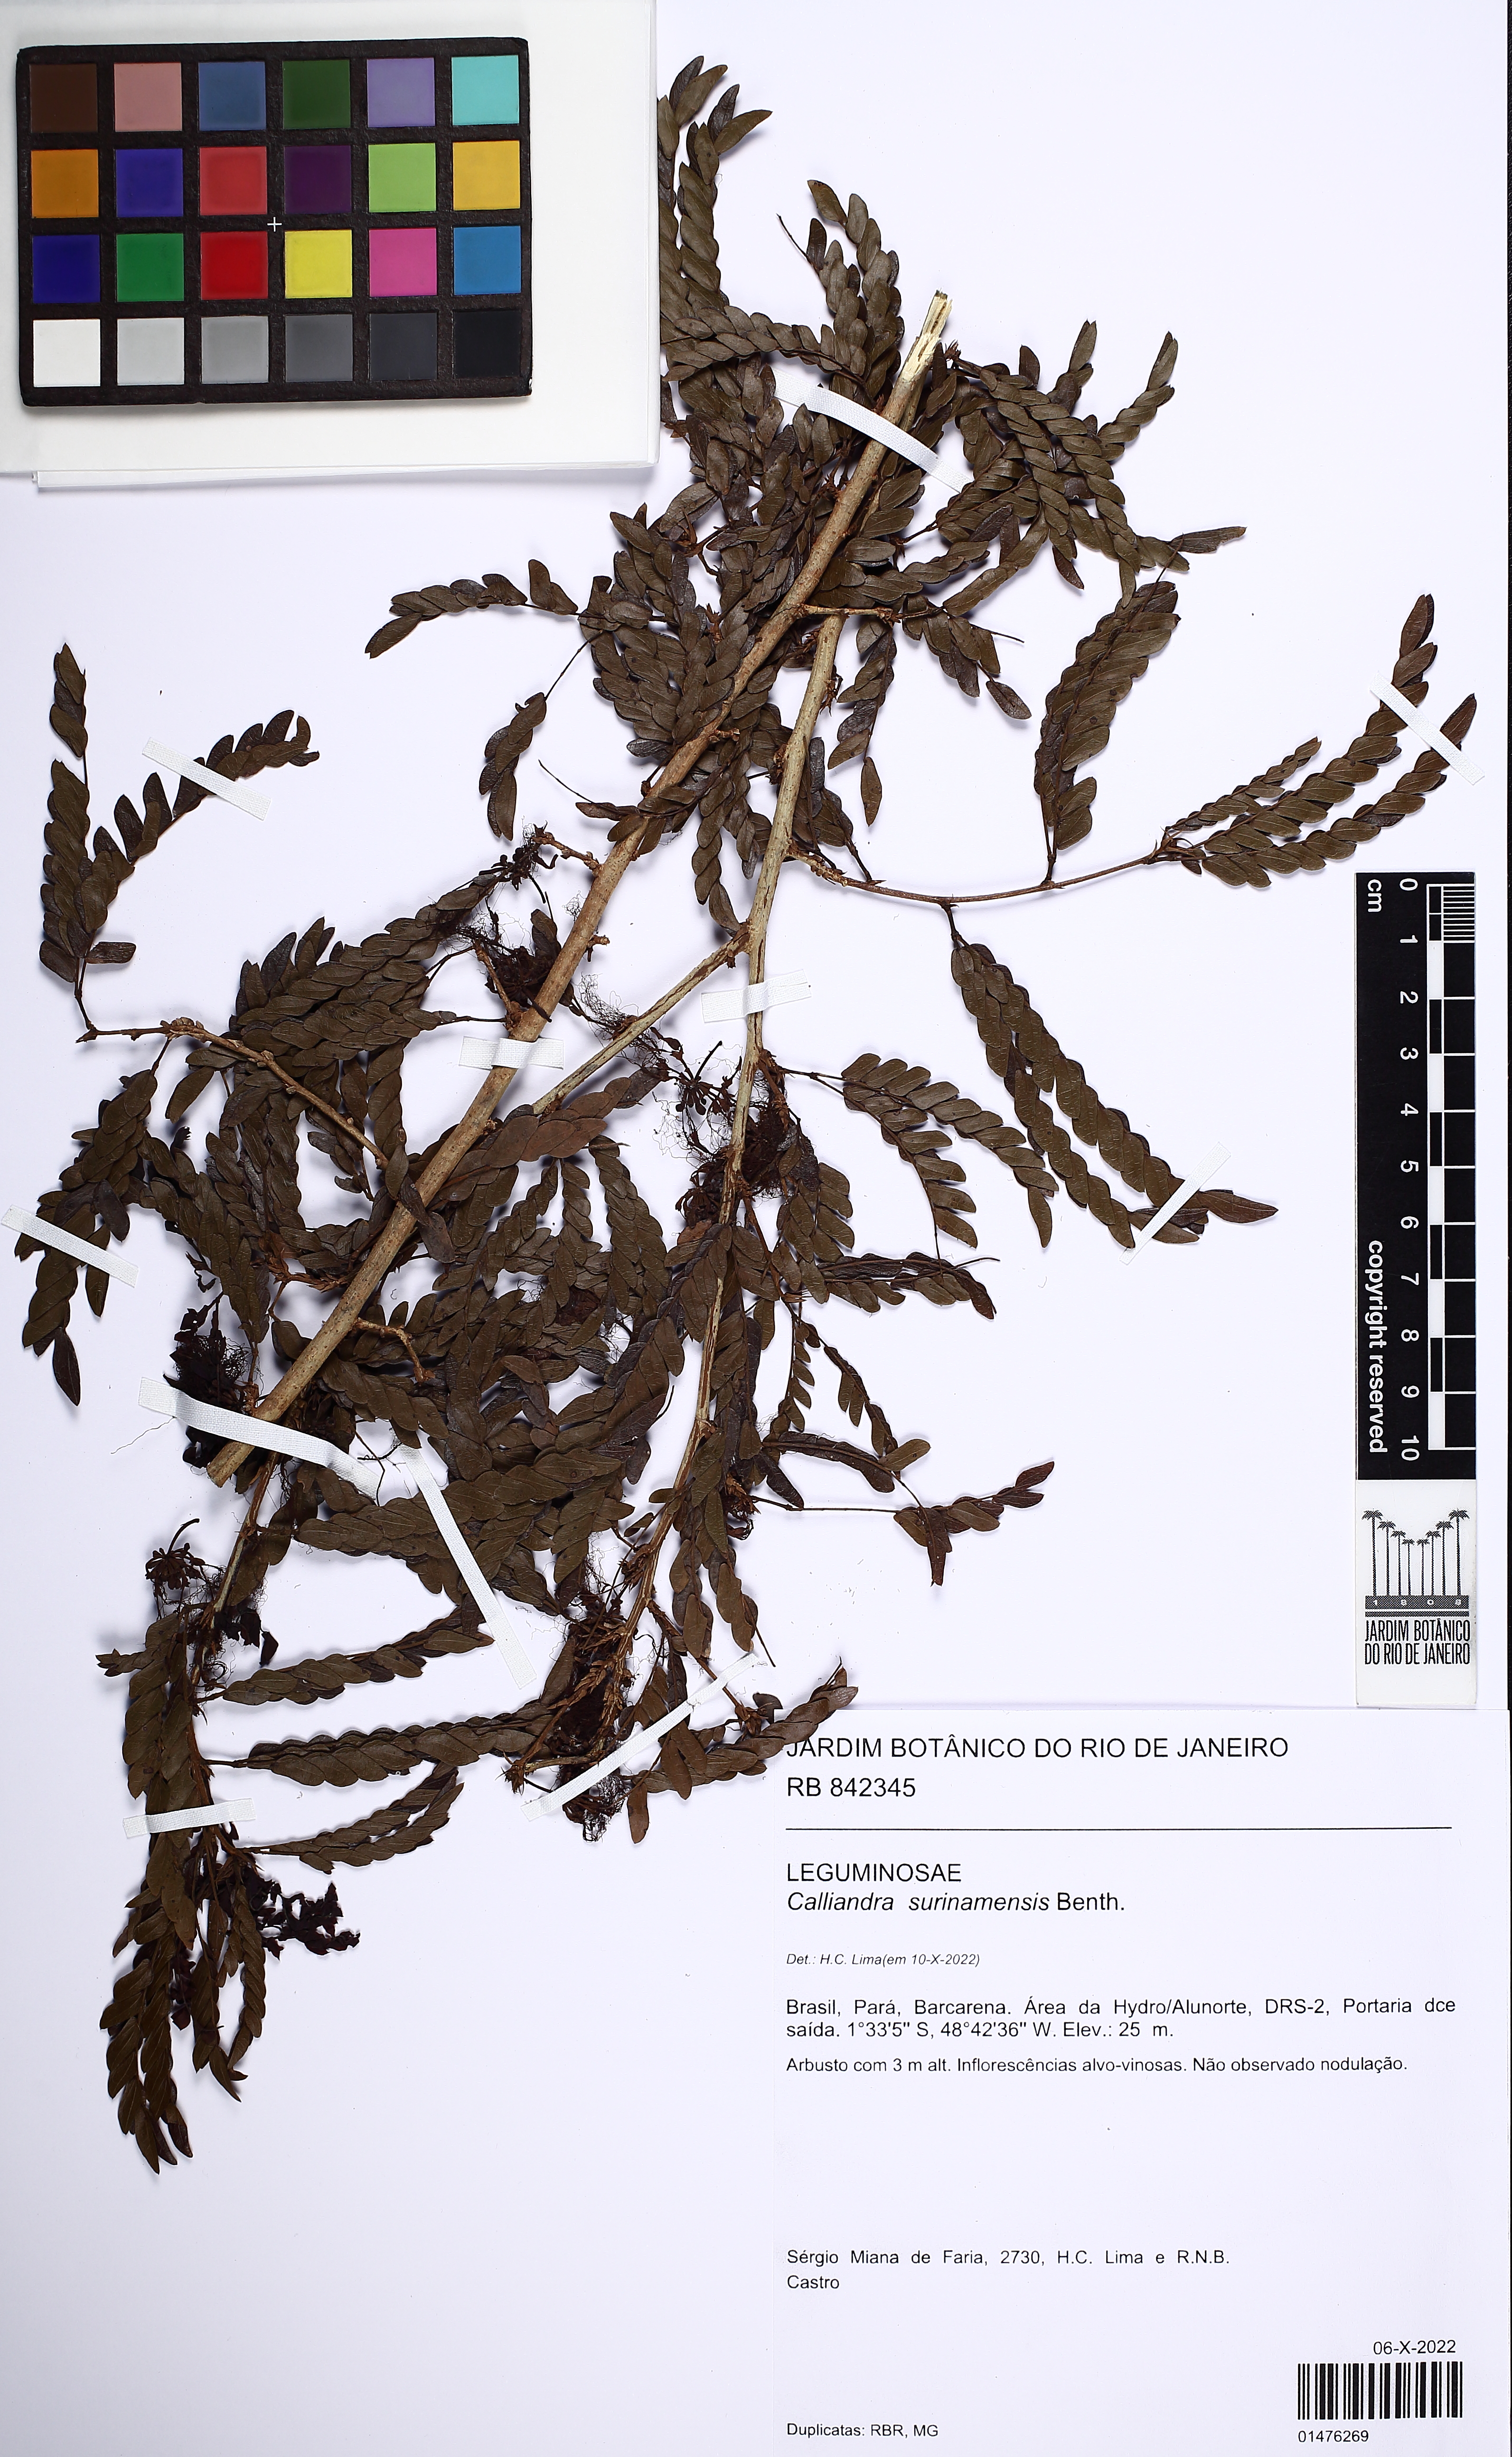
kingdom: Plantae
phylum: Tracheophyta
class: Magnoliopsida
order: Fabales
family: Fabaceae
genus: Calliandra
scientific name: Calliandra surinamensis
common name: Pink powder puff
